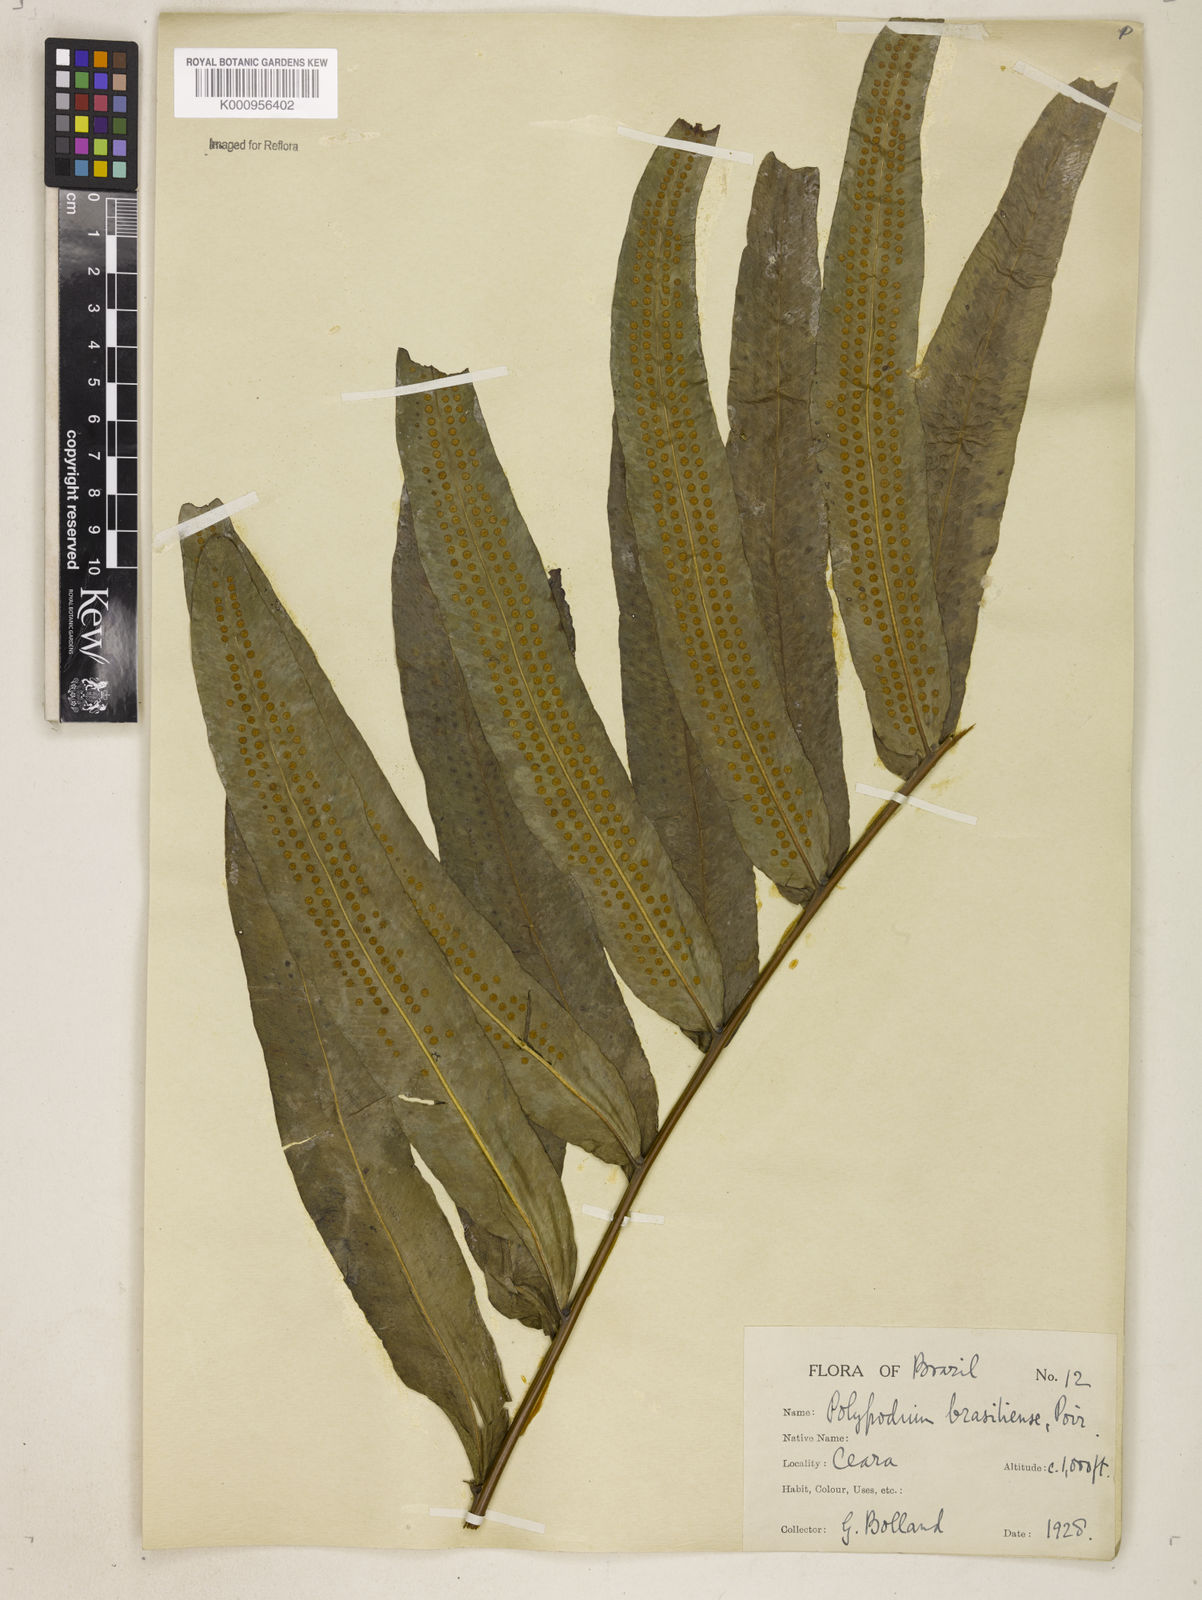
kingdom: Plantae
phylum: Tracheophyta
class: Polypodiopsida
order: Polypodiales
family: Polypodiaceae
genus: Serpocaulon
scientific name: Serpocaulon triseriale
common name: Angle-vein fern
